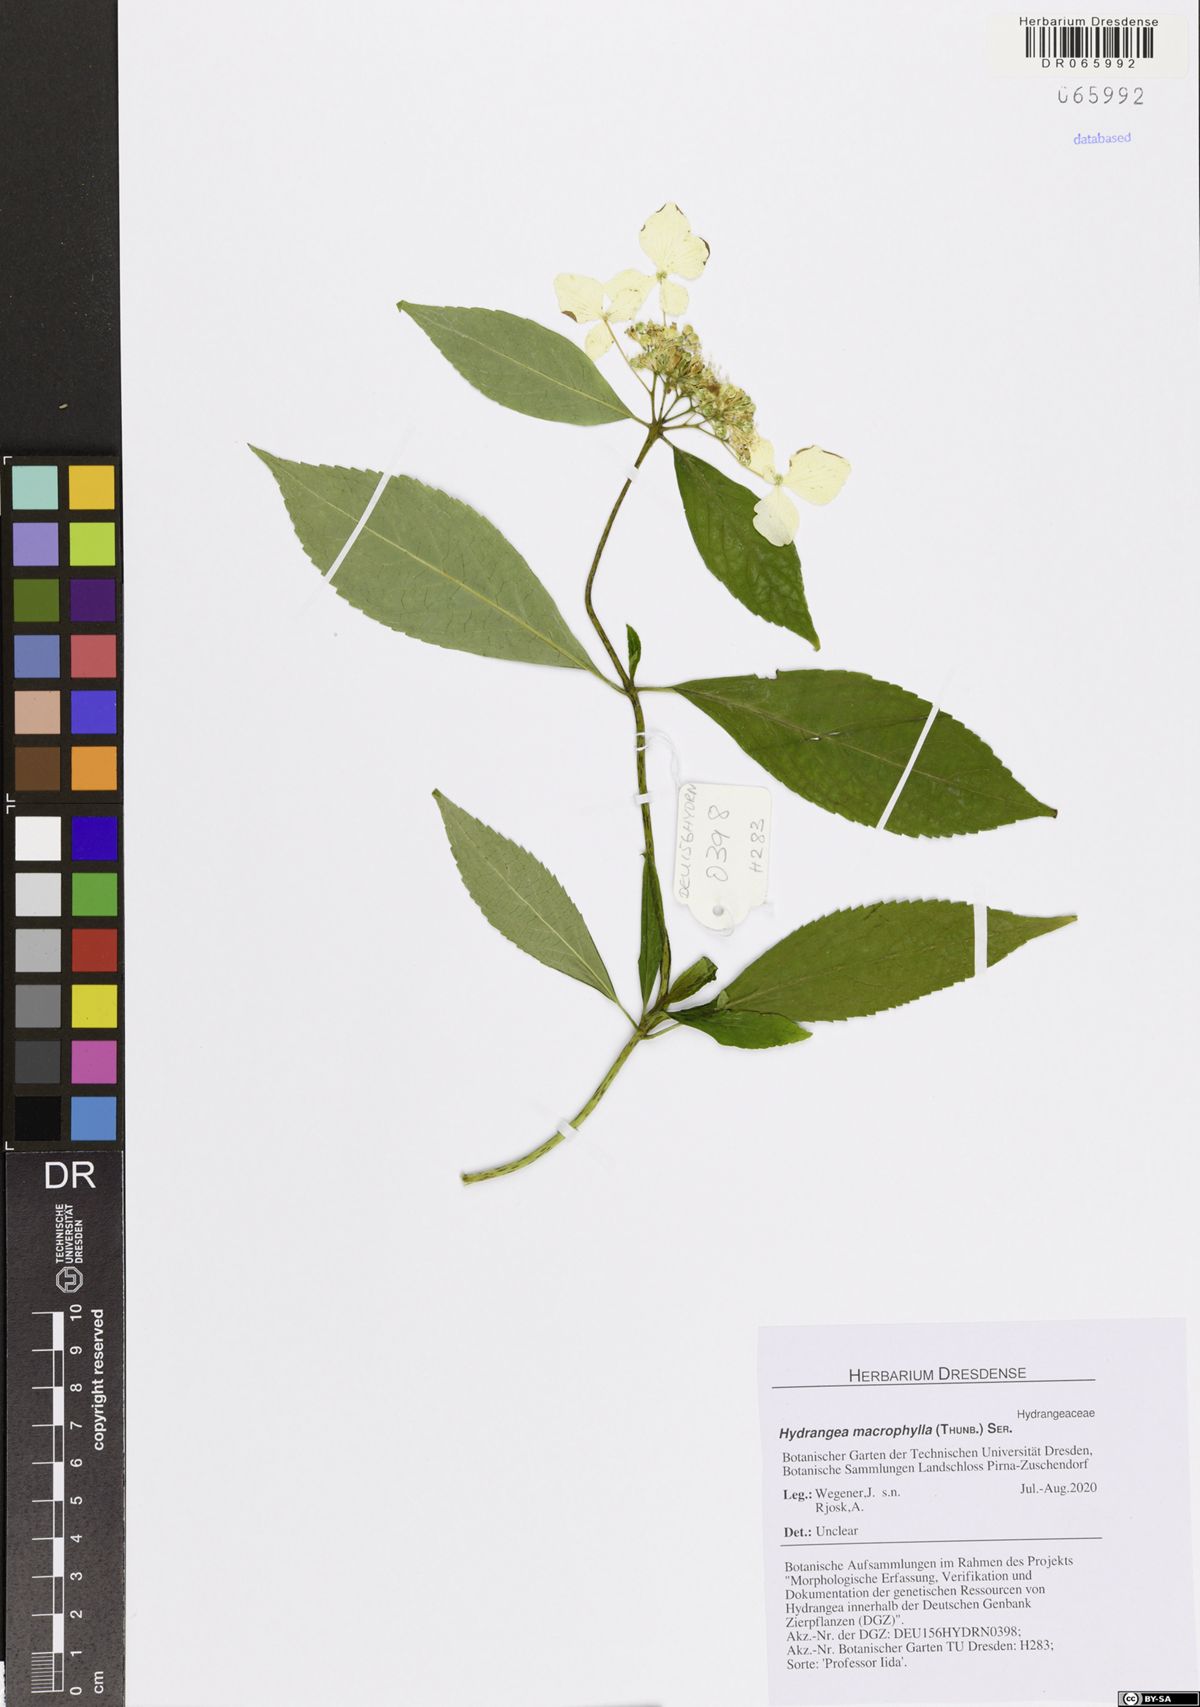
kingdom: Plantae
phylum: Tracheophyta
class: Magnoliopsida
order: Cornales
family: Hydrangeaceae
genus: Hydrangea
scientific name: Hydrangea macrophylla
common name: Hydrangea
